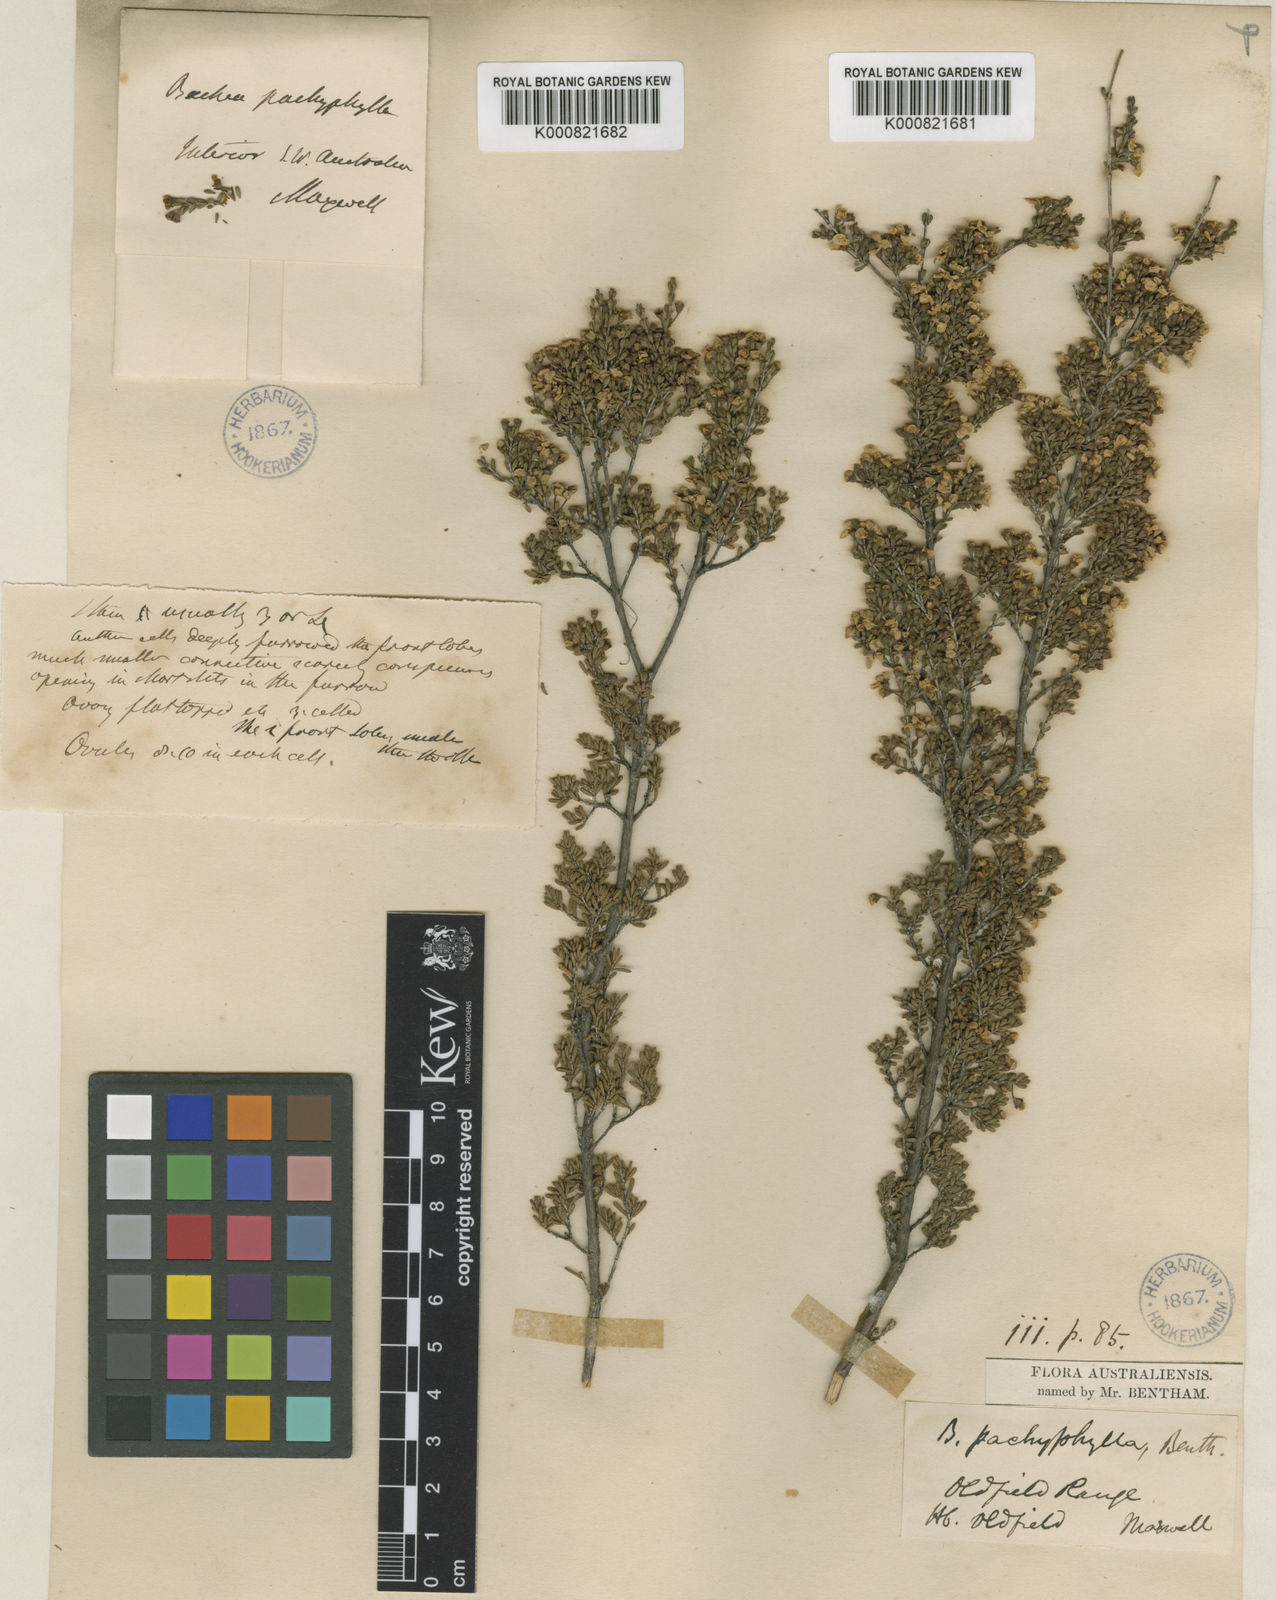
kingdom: Plantae
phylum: Tracheophyta
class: Magnoliopsida
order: Myrtales
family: Myrtaceae
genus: Austrobaeckea
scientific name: Austrobaeckea pachyphylla
